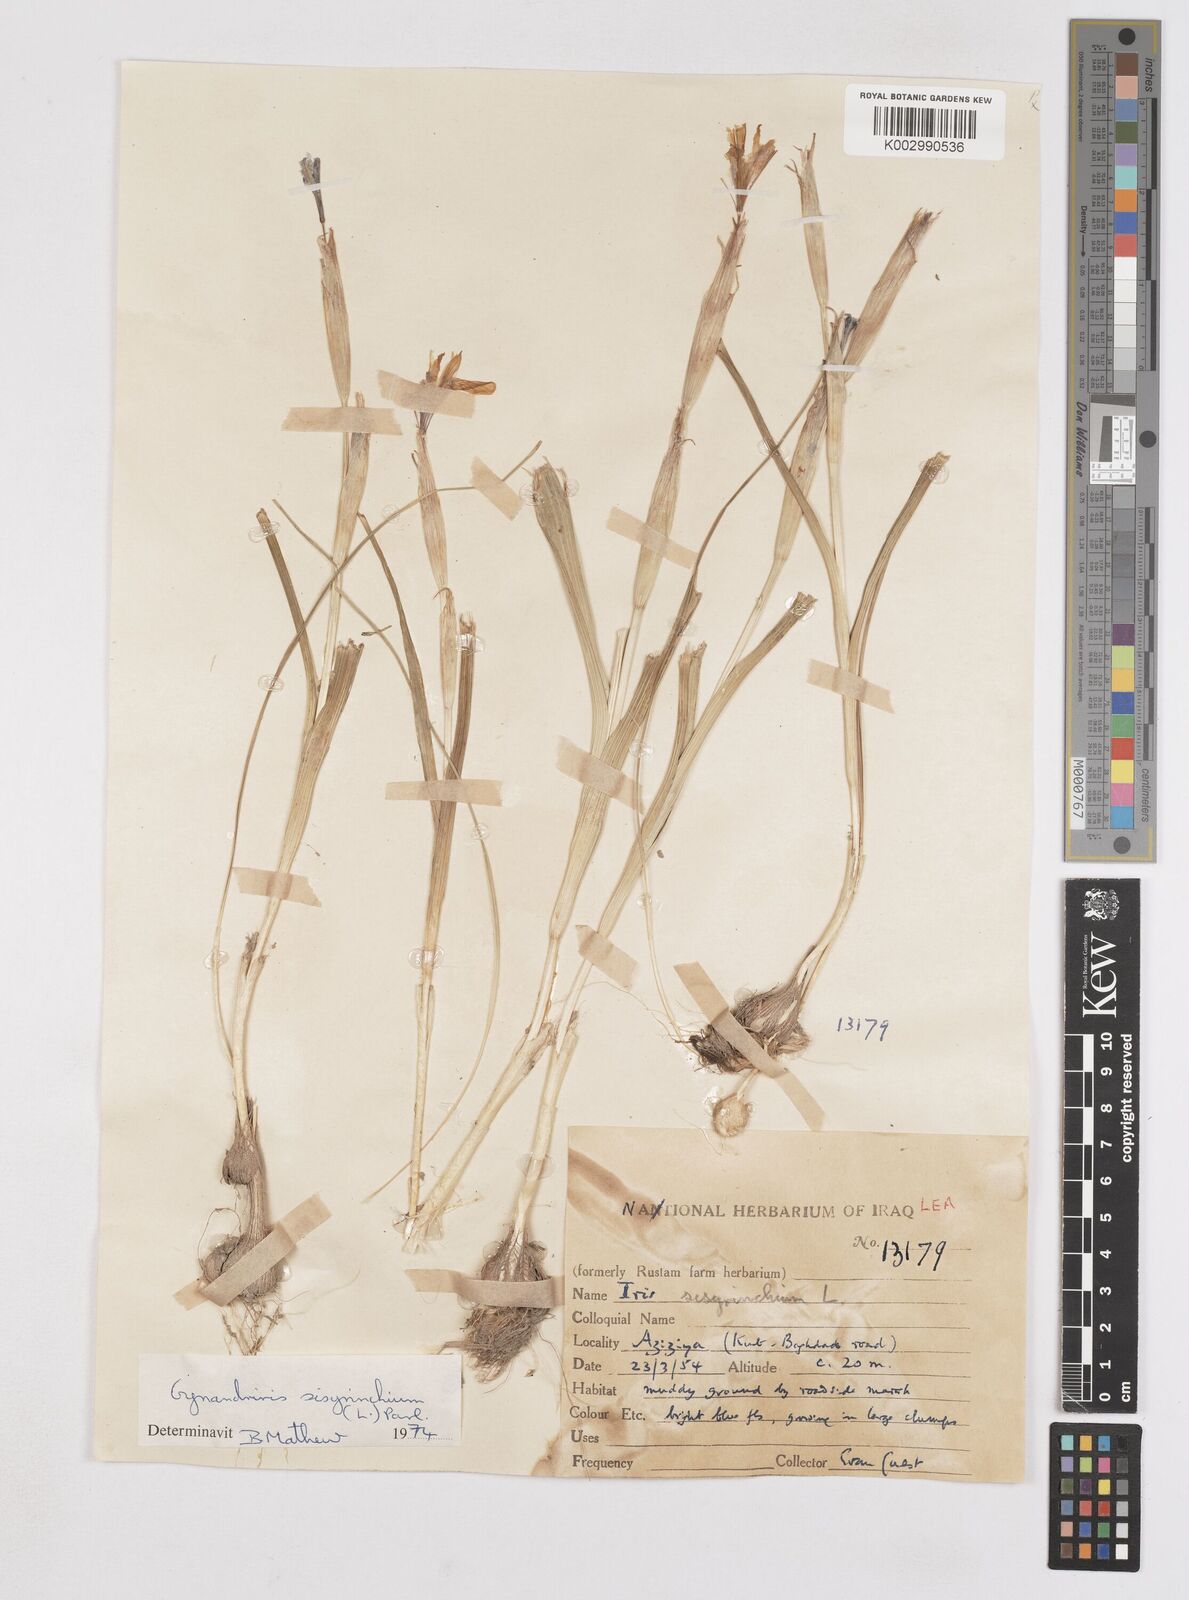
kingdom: Plantae
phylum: Tracheophyta
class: Liliopsida
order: Asparagales
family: Iridaceae
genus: Moraea
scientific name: Moraea sisyrinchium
